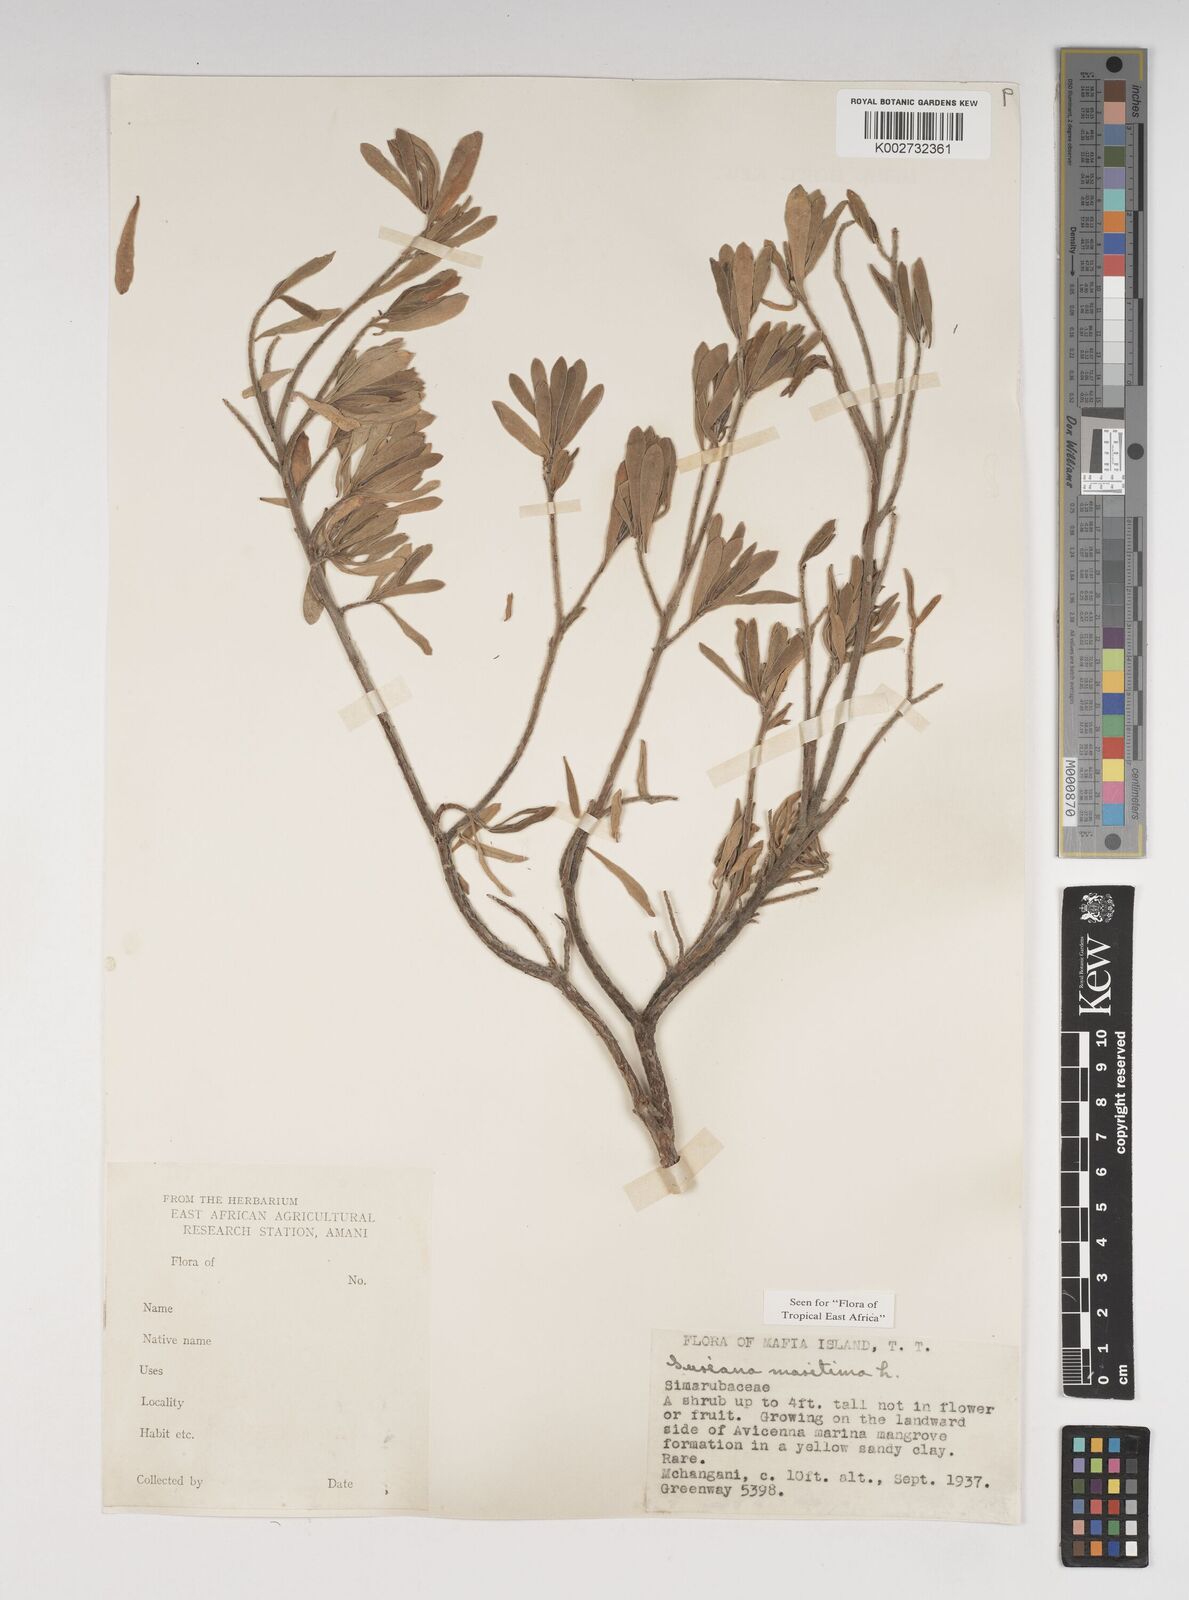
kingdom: Plantae
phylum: Tracheophyta
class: Magnoliopsida
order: Fabales
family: Surianaceae
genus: Suriana
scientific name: Suriana maritima
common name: Bay-cedar
